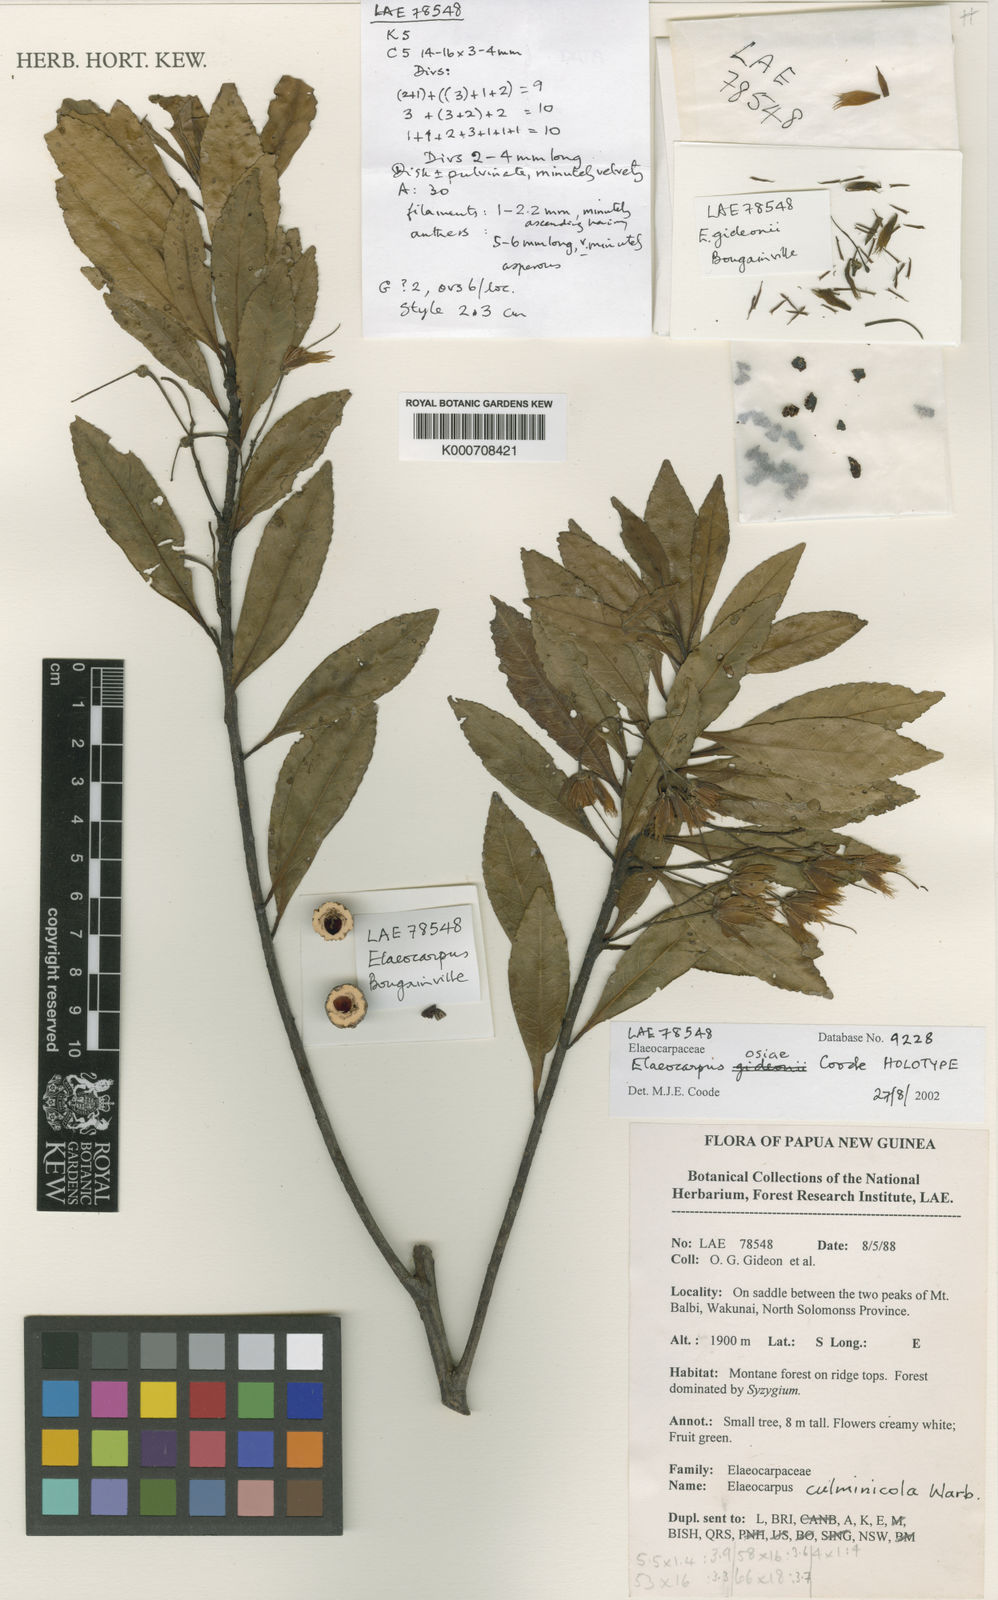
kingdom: Plantae
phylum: Tracheophyta
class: Magnoliopsida
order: Oxalidales
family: Elaeocarpaceae
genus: Elaeocarpus
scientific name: Elaeocarpus osiae
